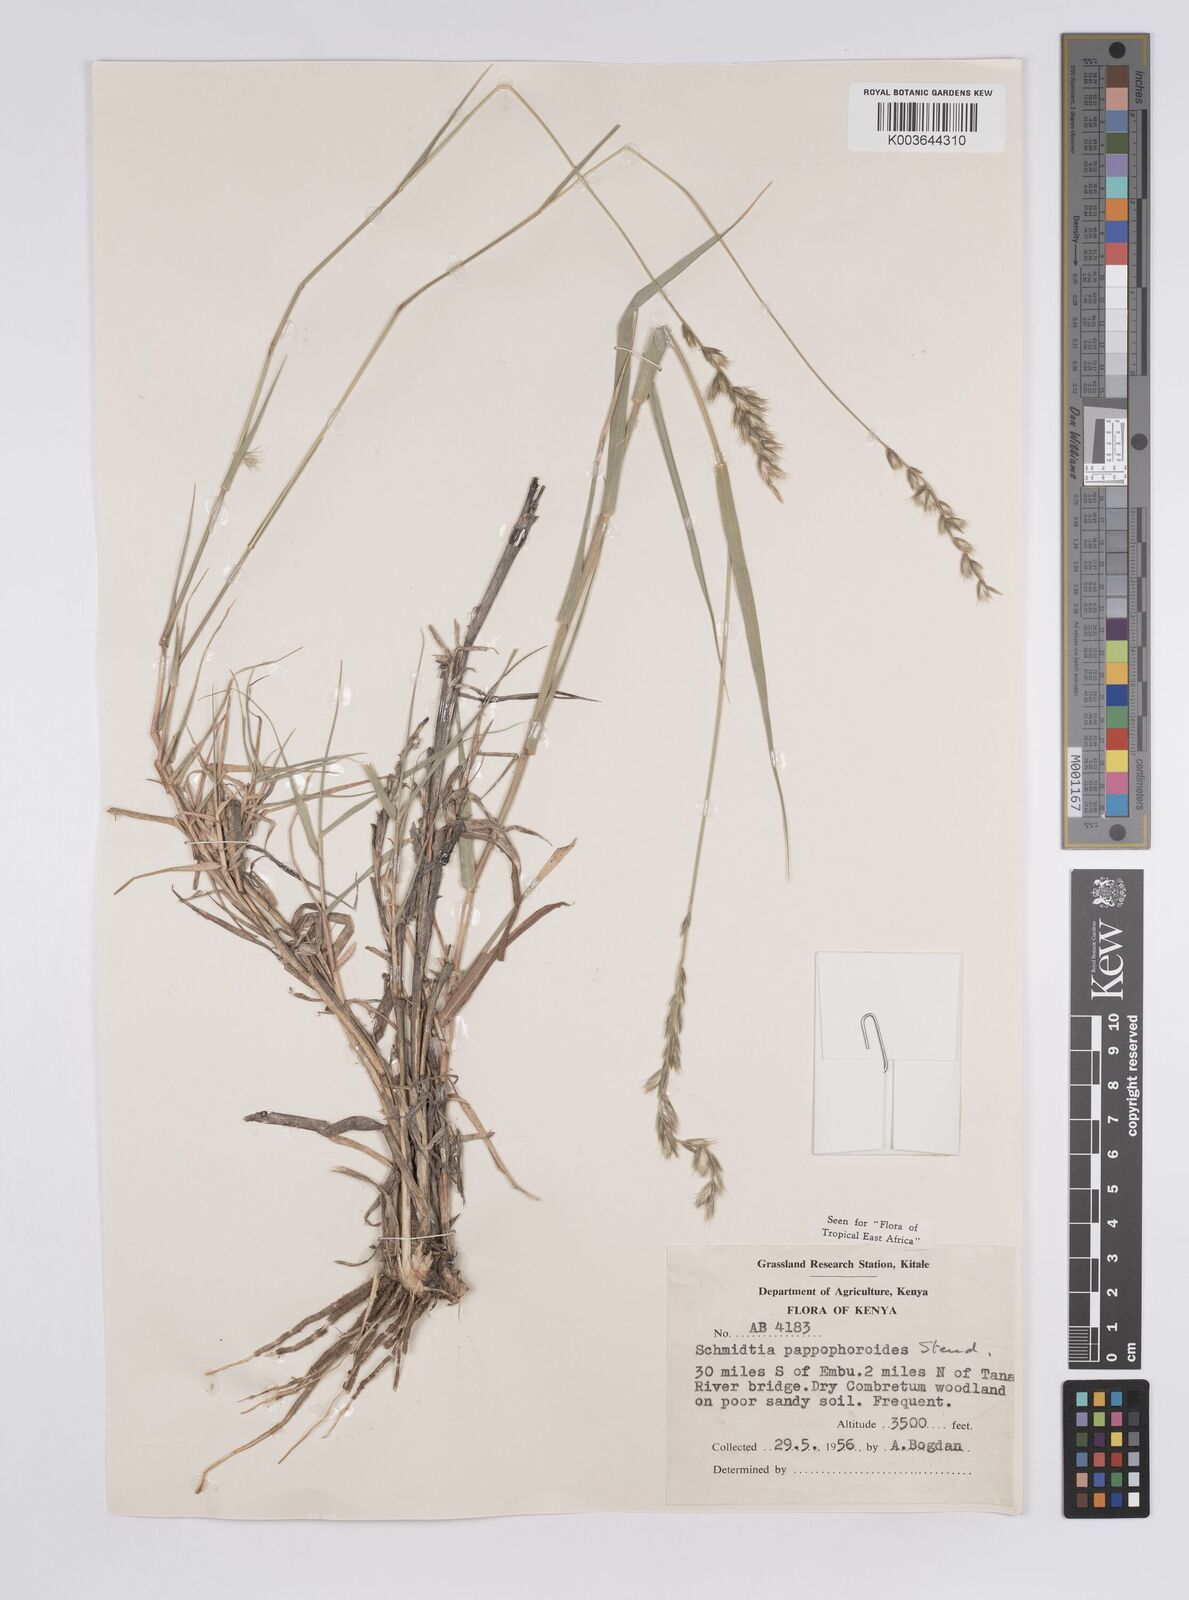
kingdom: Plantae
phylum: Tracheophyta
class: Liliopsida
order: Poales
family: Poaceae
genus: Schmidtia
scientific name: Schmidtia pappophoroides
